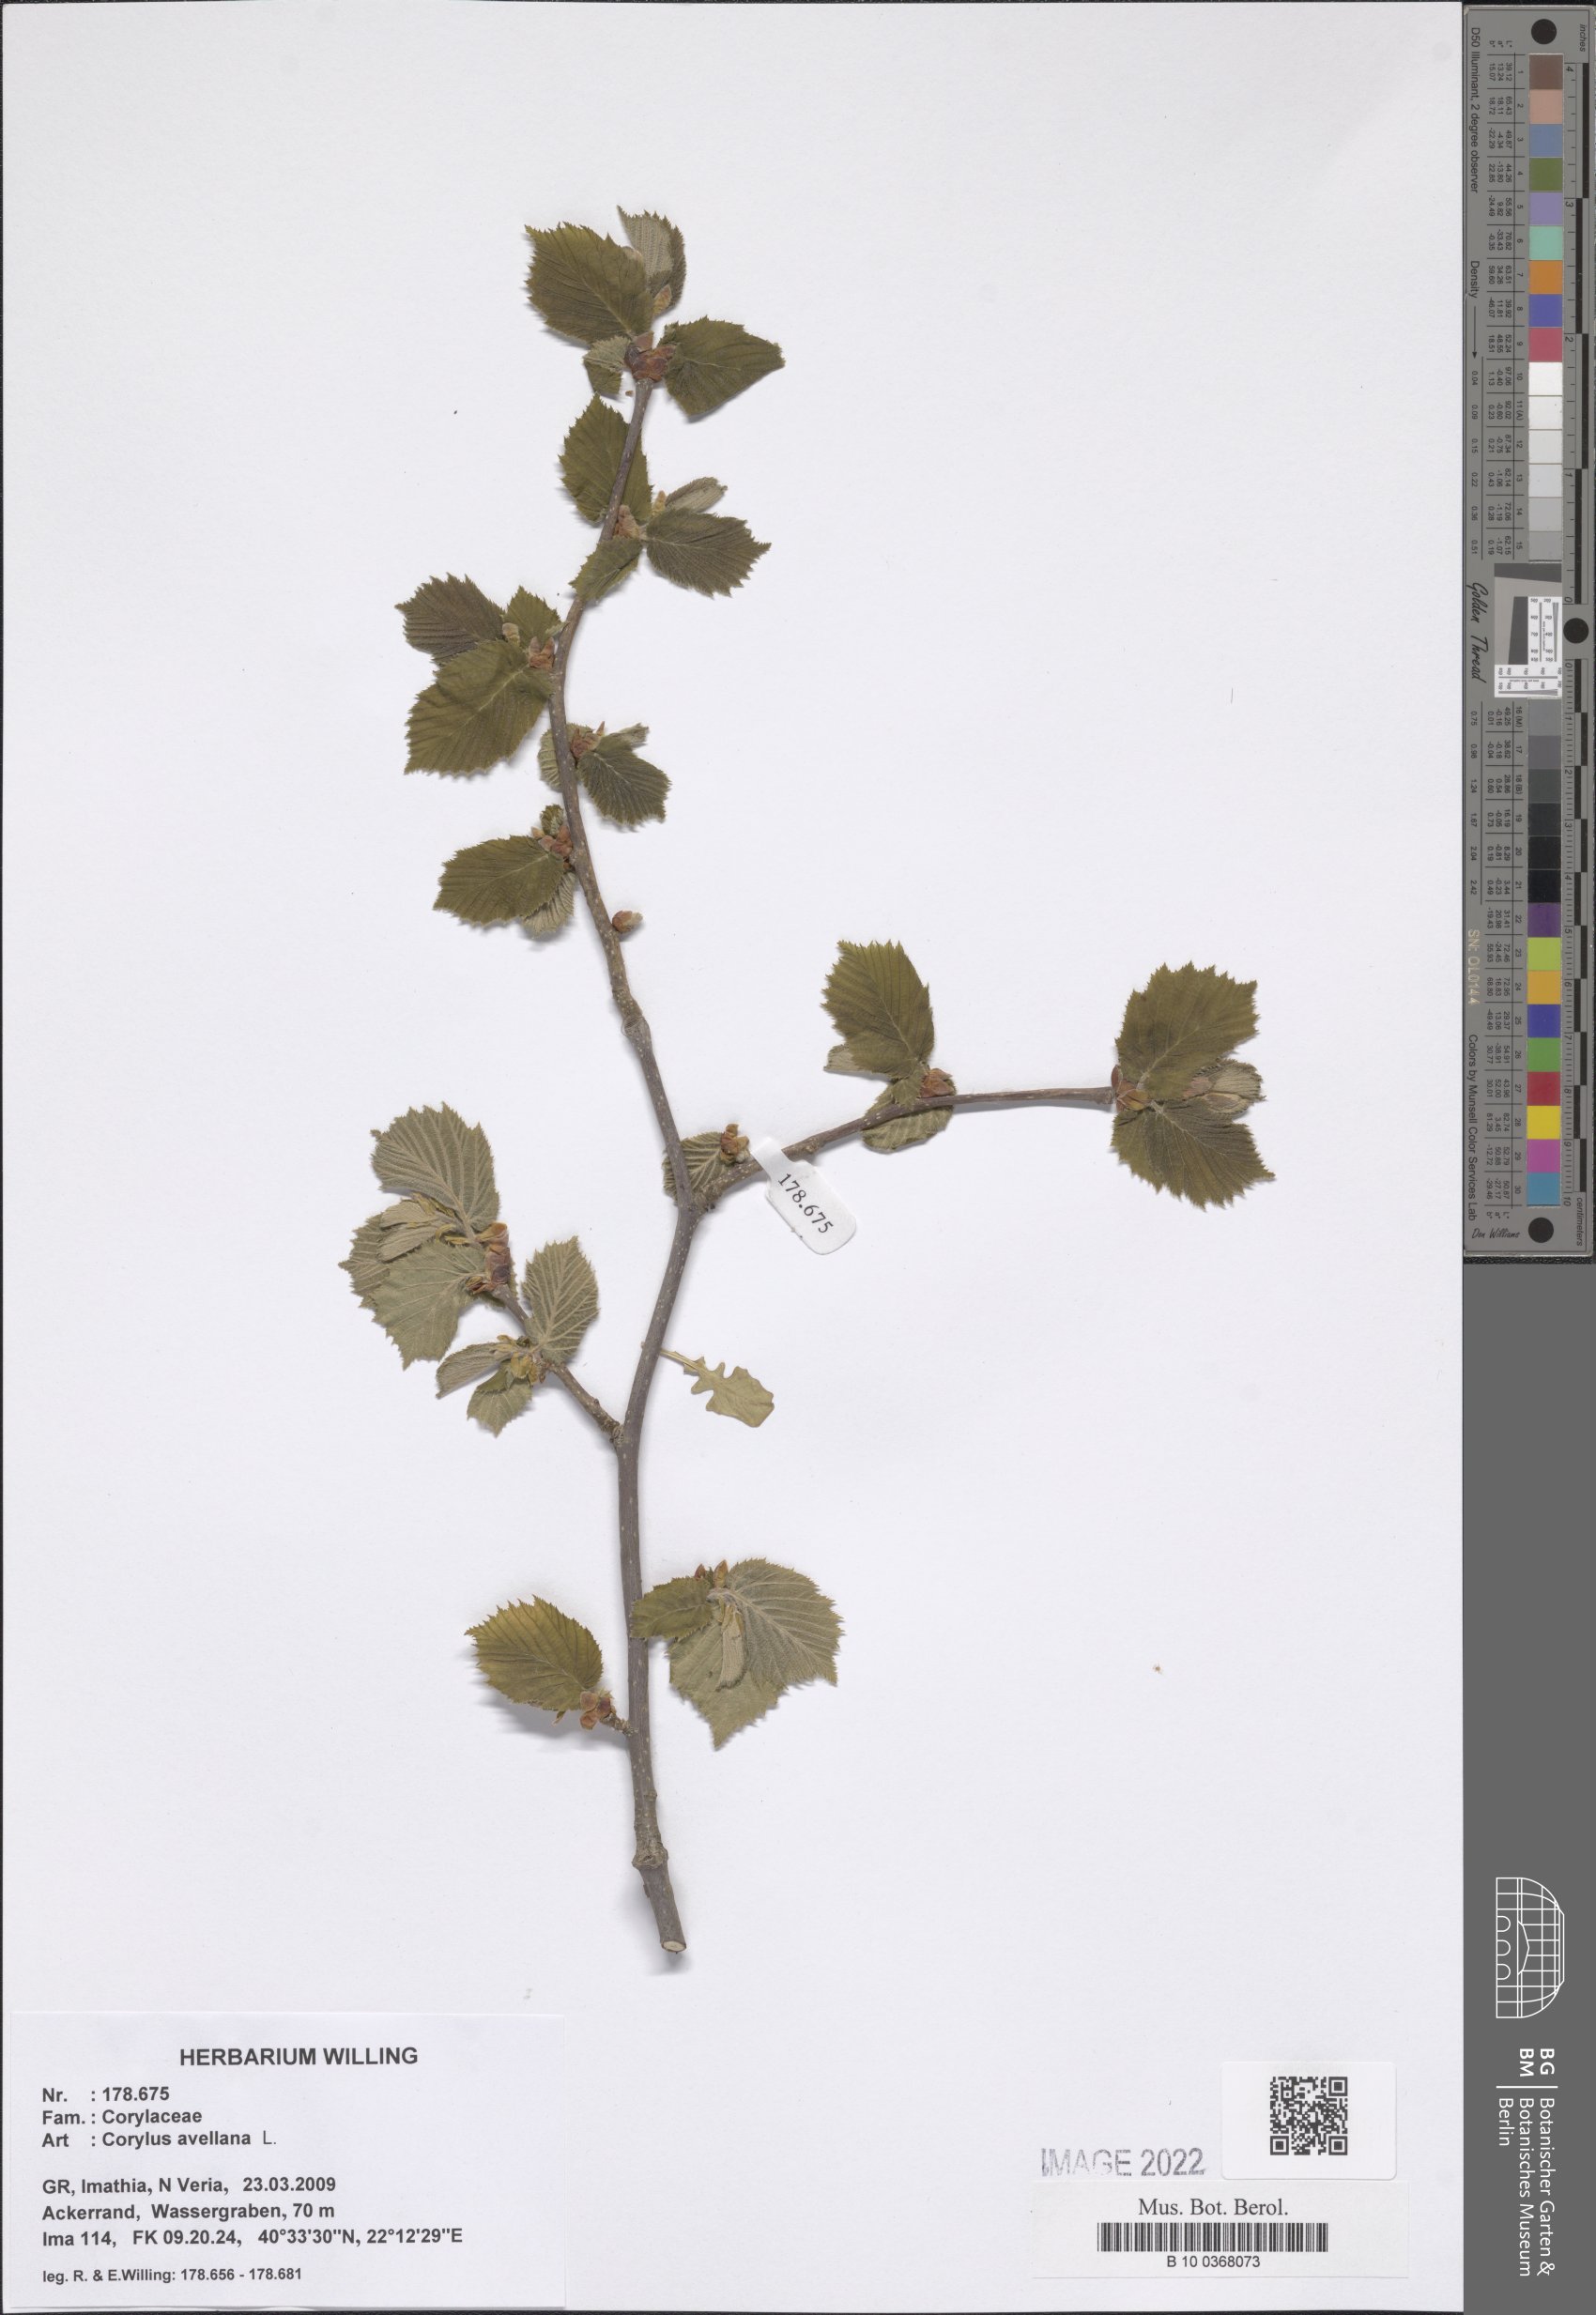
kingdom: Plantae
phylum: Tracheophyta
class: Magnoliopsida
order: Fagales
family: Betulaceae
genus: Corylus
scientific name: Corylus avellana
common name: European hazel
